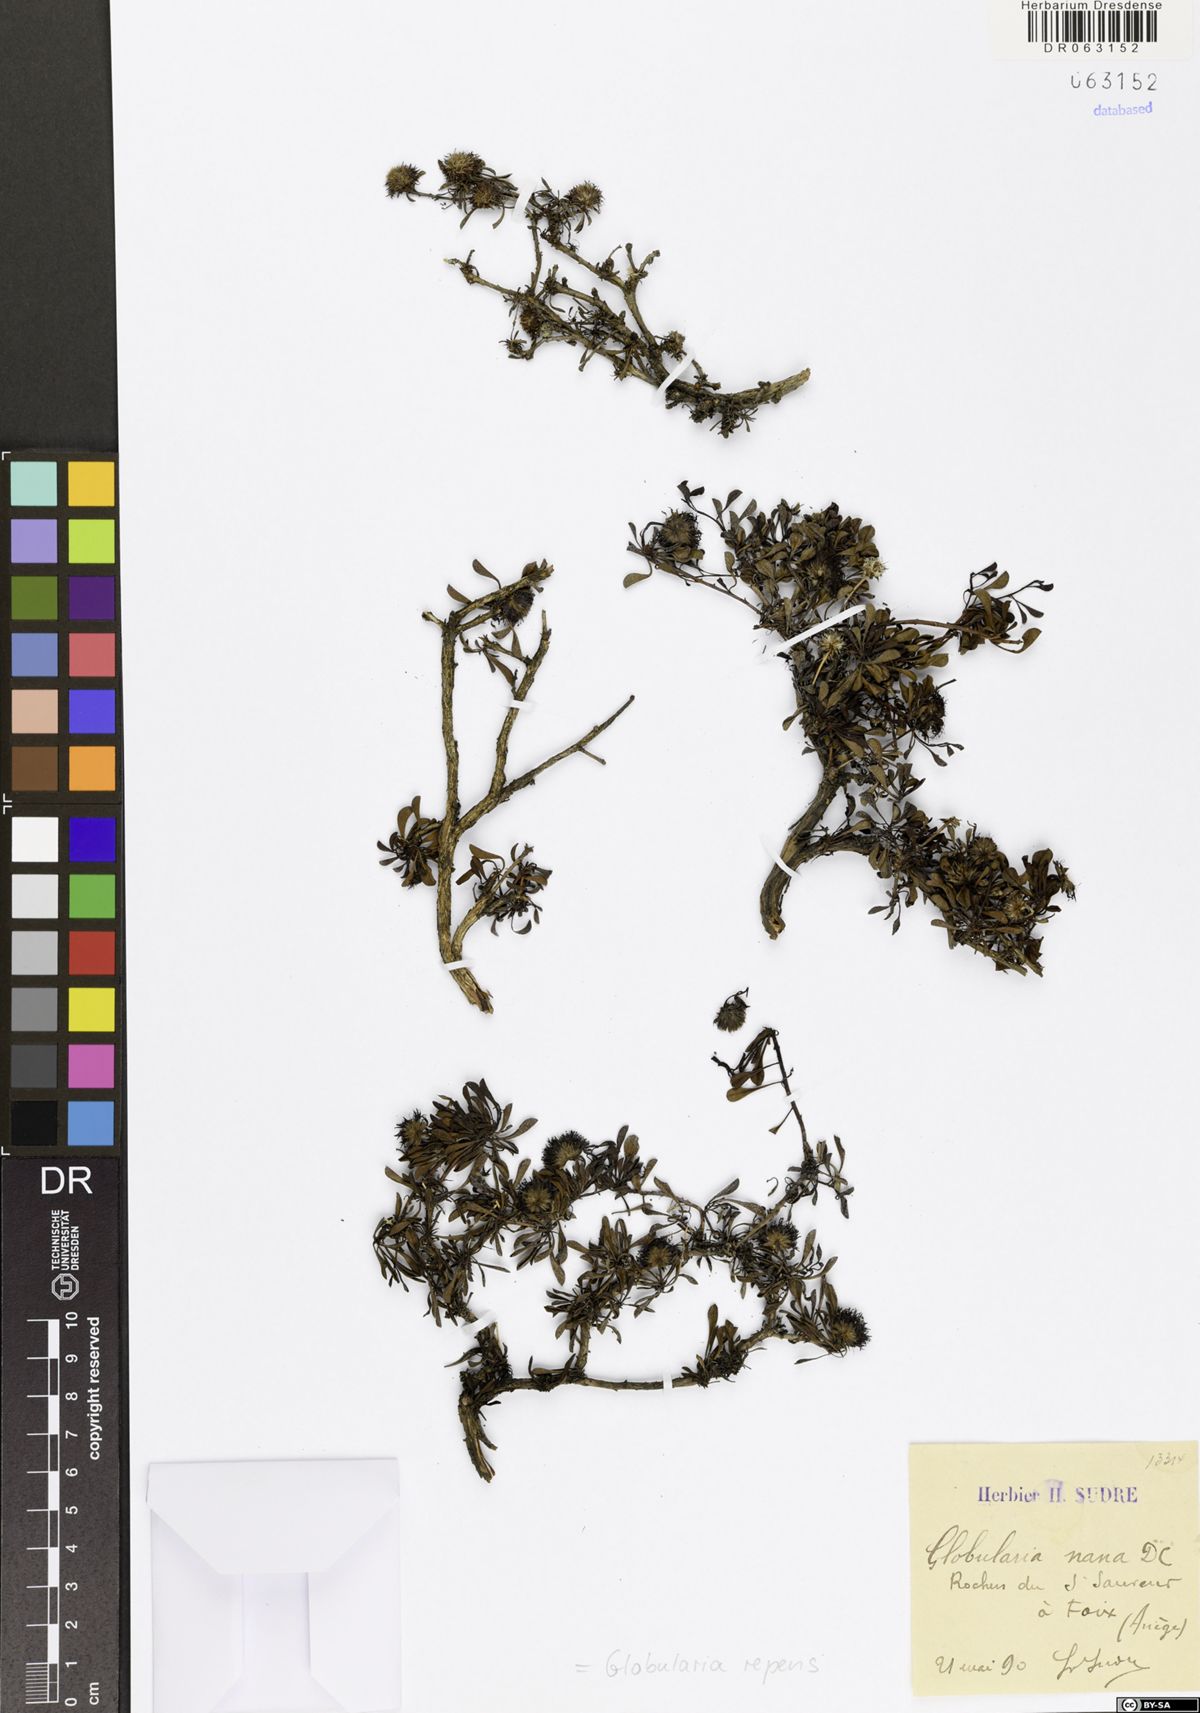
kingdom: Plantae
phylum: Tracheophyta
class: Magnoliopsida
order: Lamiales
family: Plantaginaceae
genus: Globularia
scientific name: Globularia repens
